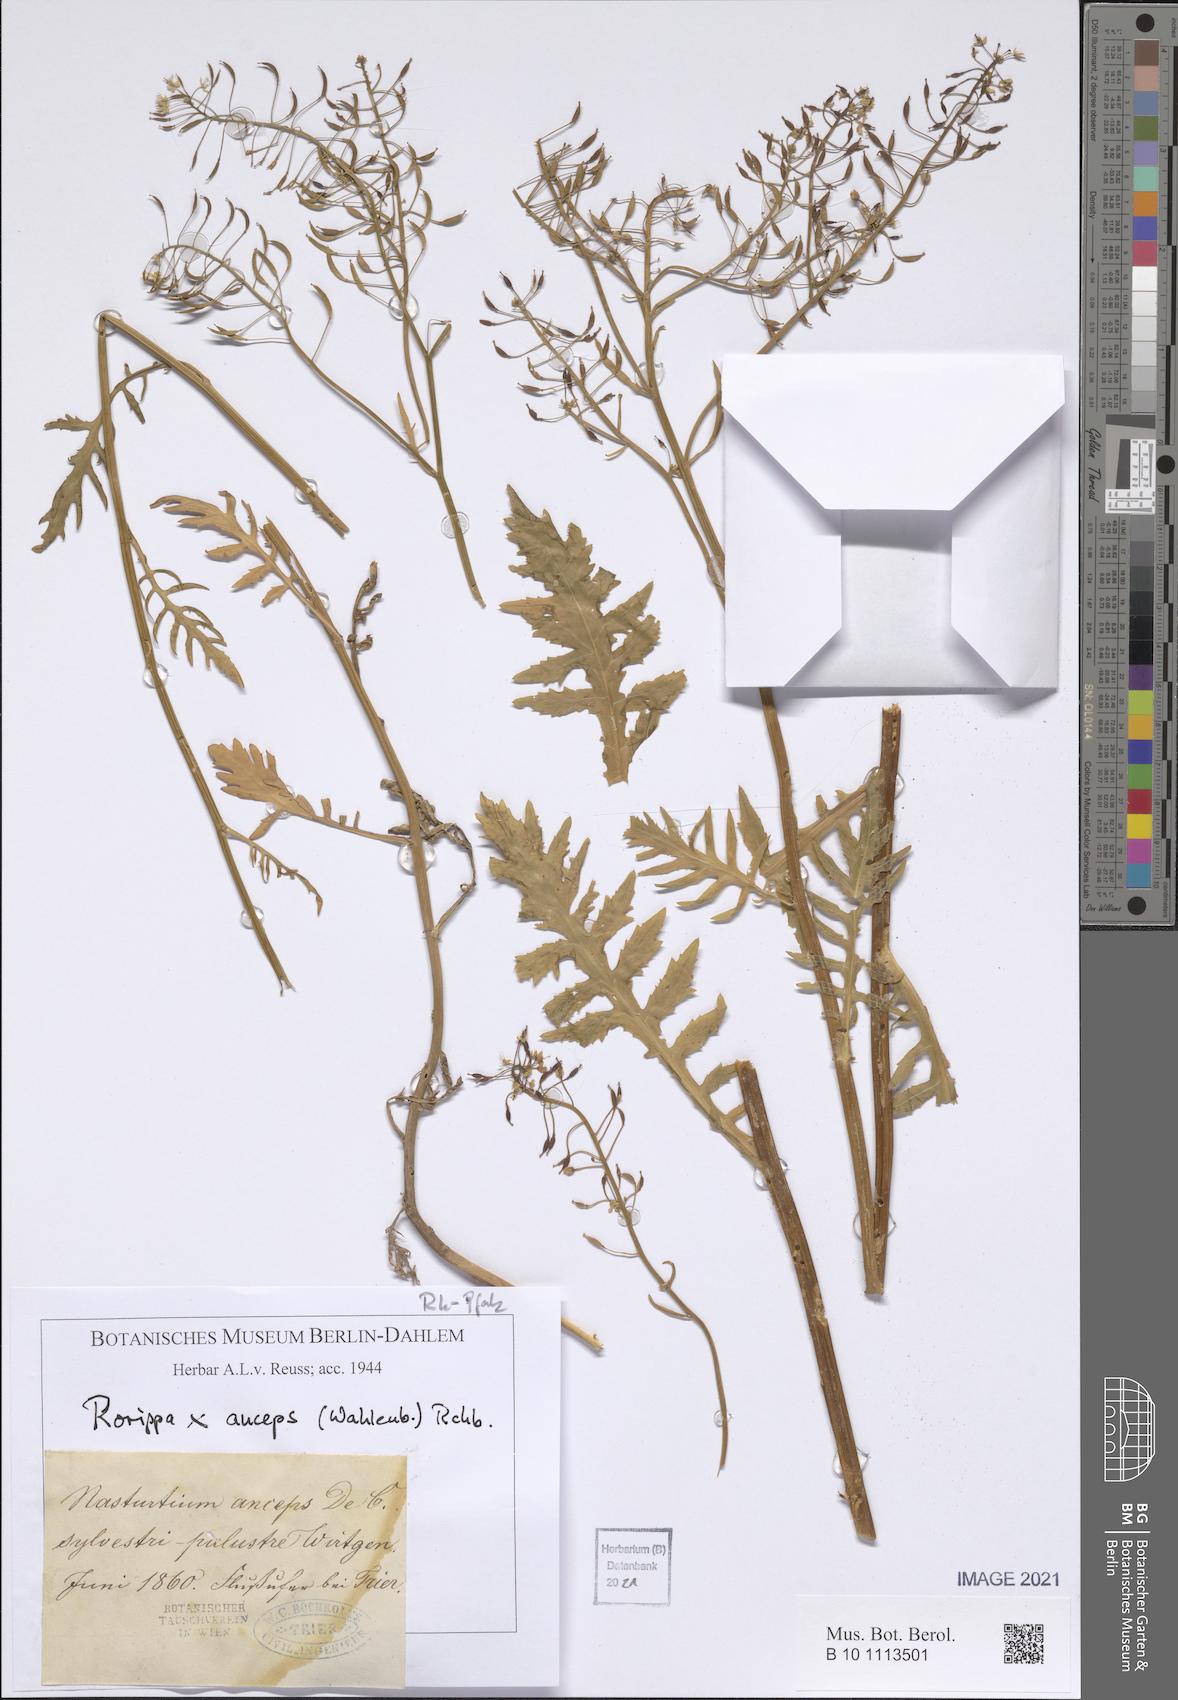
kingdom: Plantae
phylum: Tracheophyta
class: Magnoliopsida
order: Brassicales
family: Brassicaceae
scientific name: Brassicaceae
